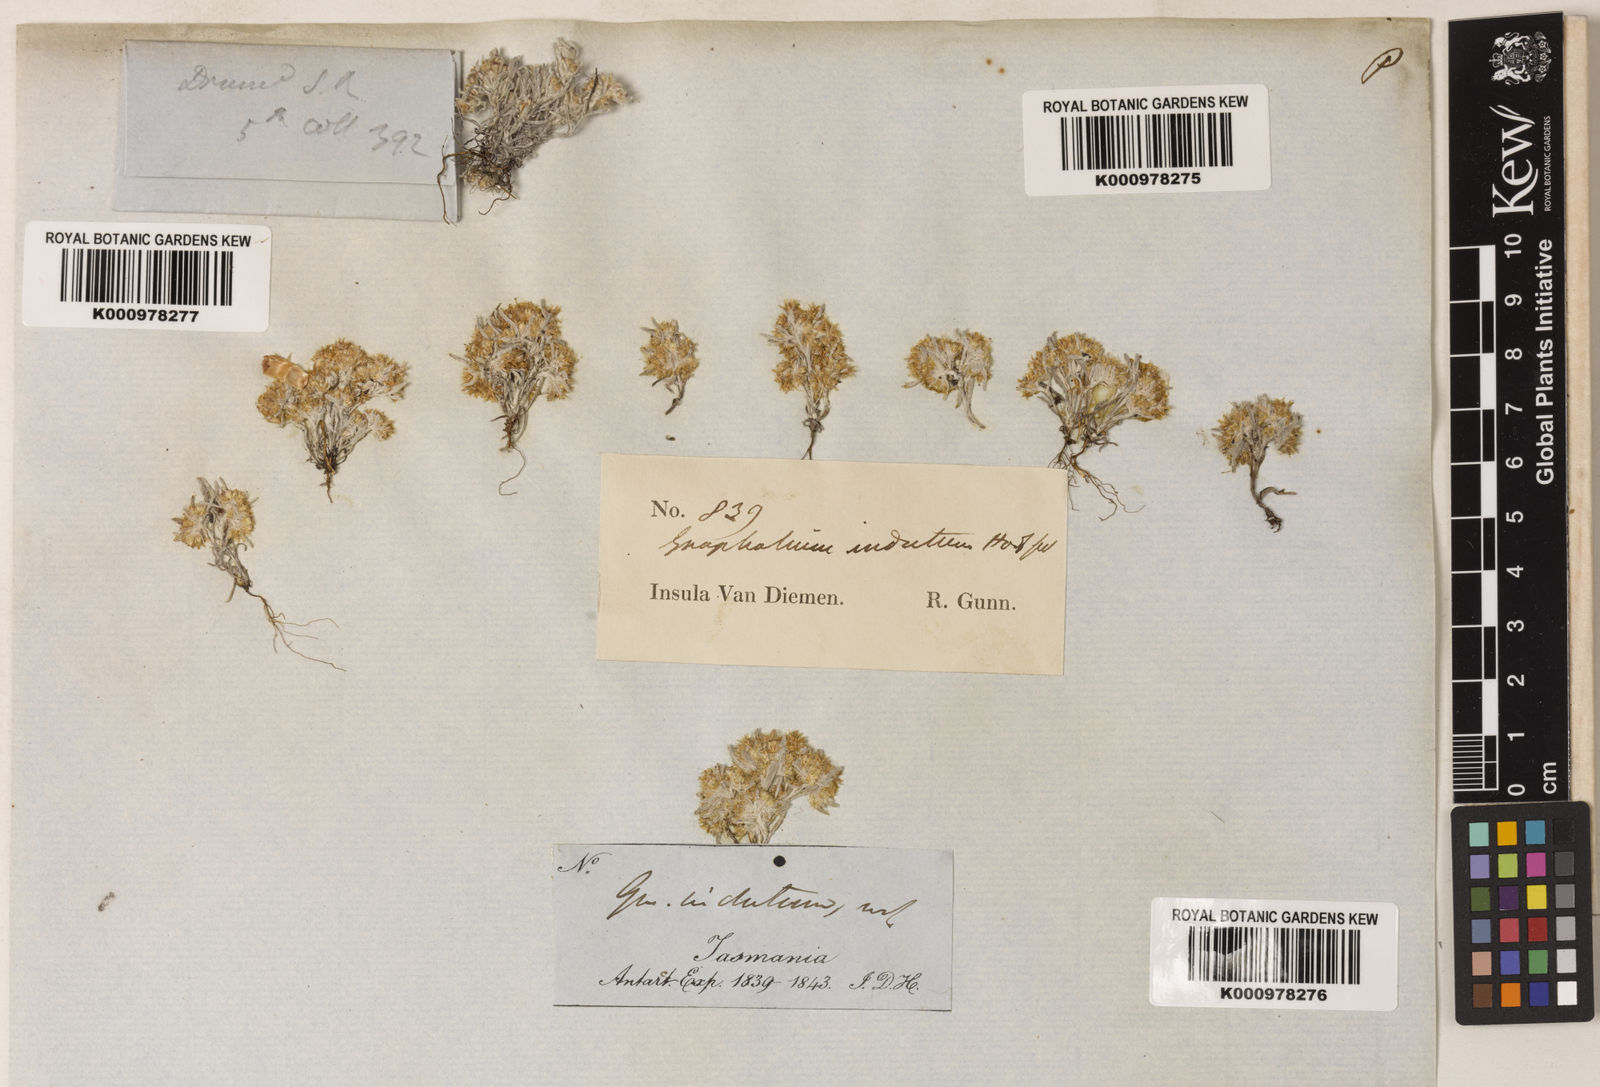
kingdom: Plantae
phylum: Tracheophyta
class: Magnoliopsida
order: Asterales
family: Asteraceae
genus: Gnaphalium
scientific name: Gnaphalium indutum
